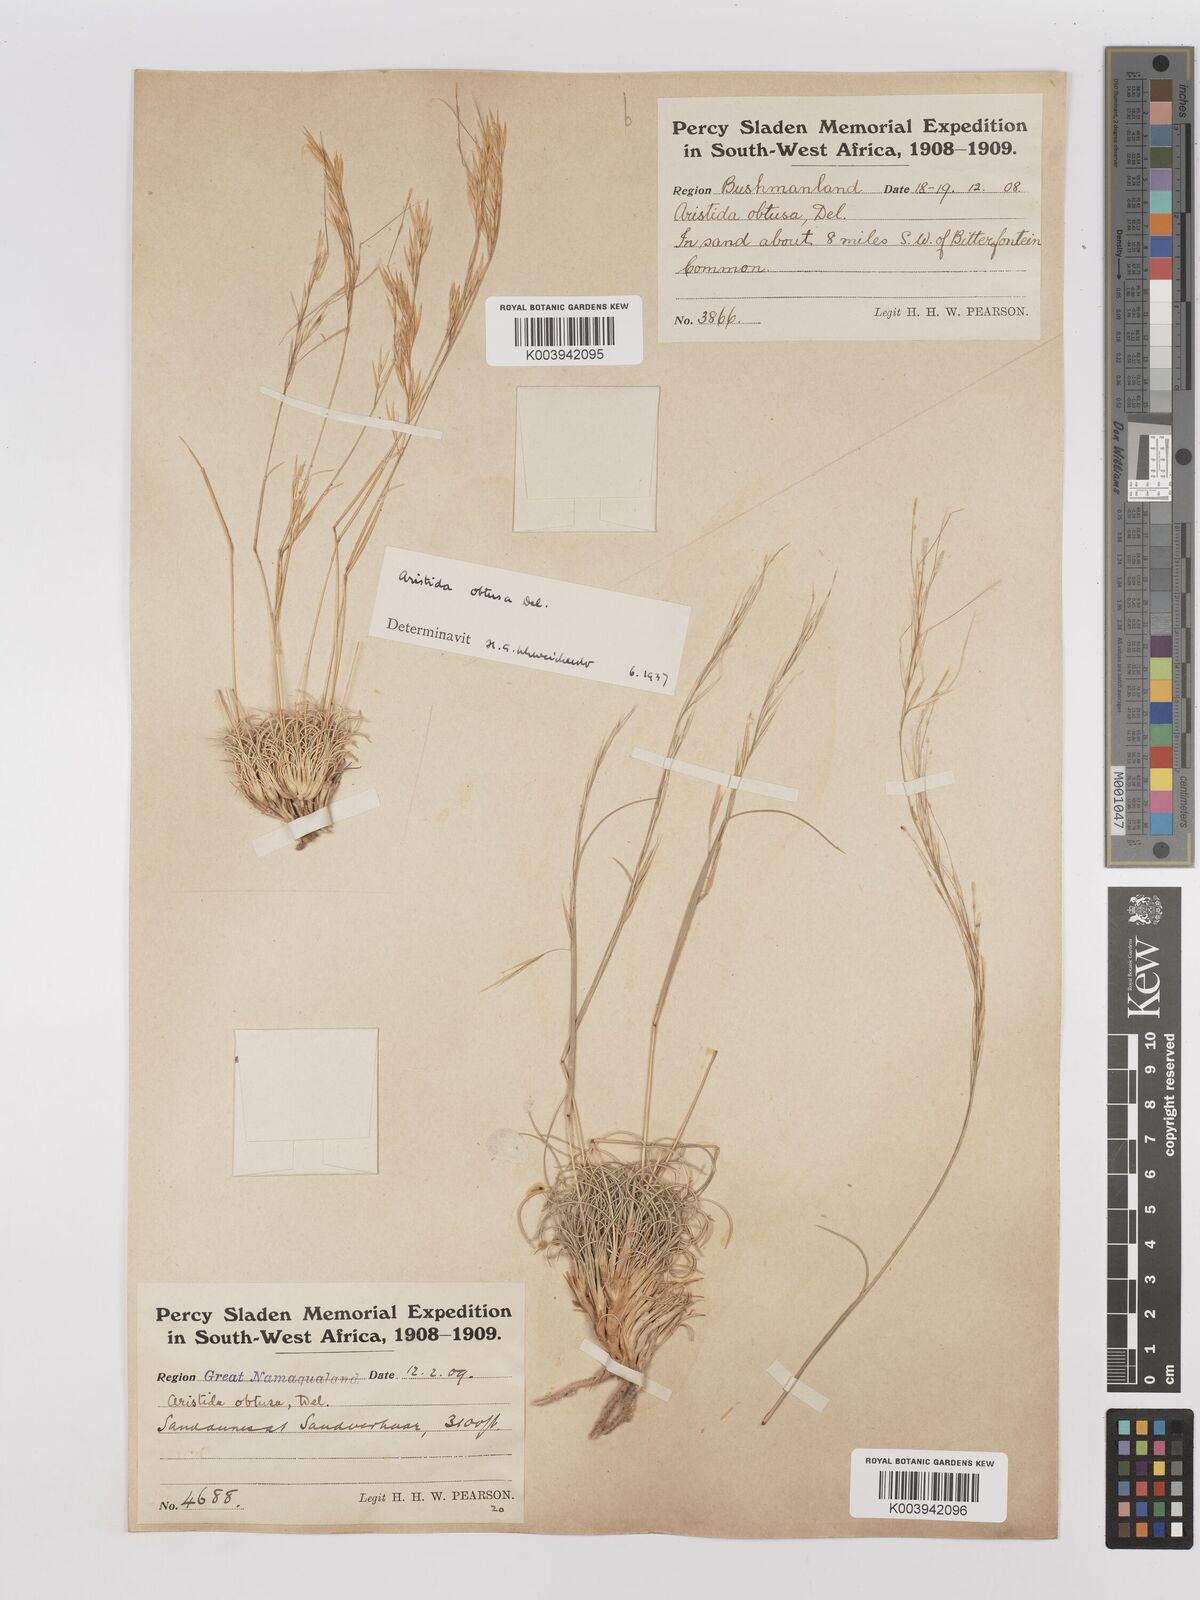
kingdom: Plantae
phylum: Tracheophyta
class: Liliopsida
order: Poales
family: Poaceae
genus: Stipagrostis
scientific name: Stipagrostis obtusa
